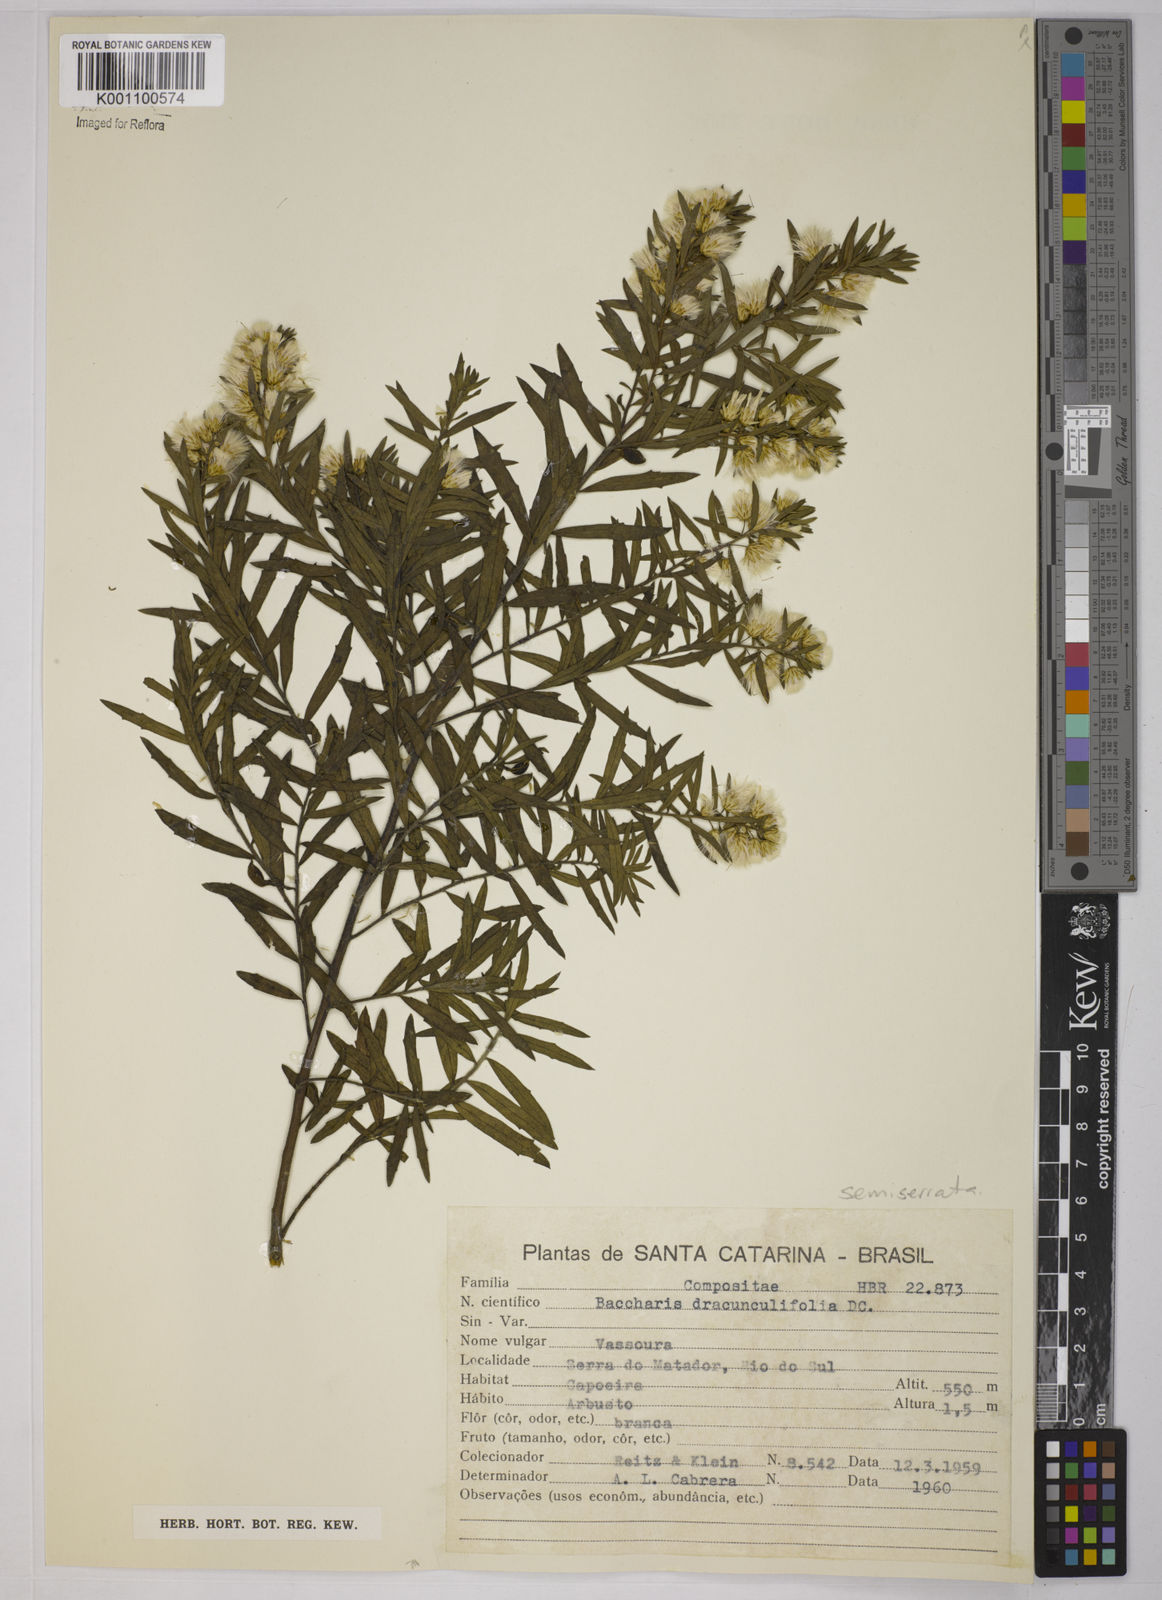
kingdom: Plantae
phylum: Tracheophyta
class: Magnoliopsida
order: Asterales
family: Asteraceae
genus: Baccharis
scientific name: Baccharis gnidiifolia
